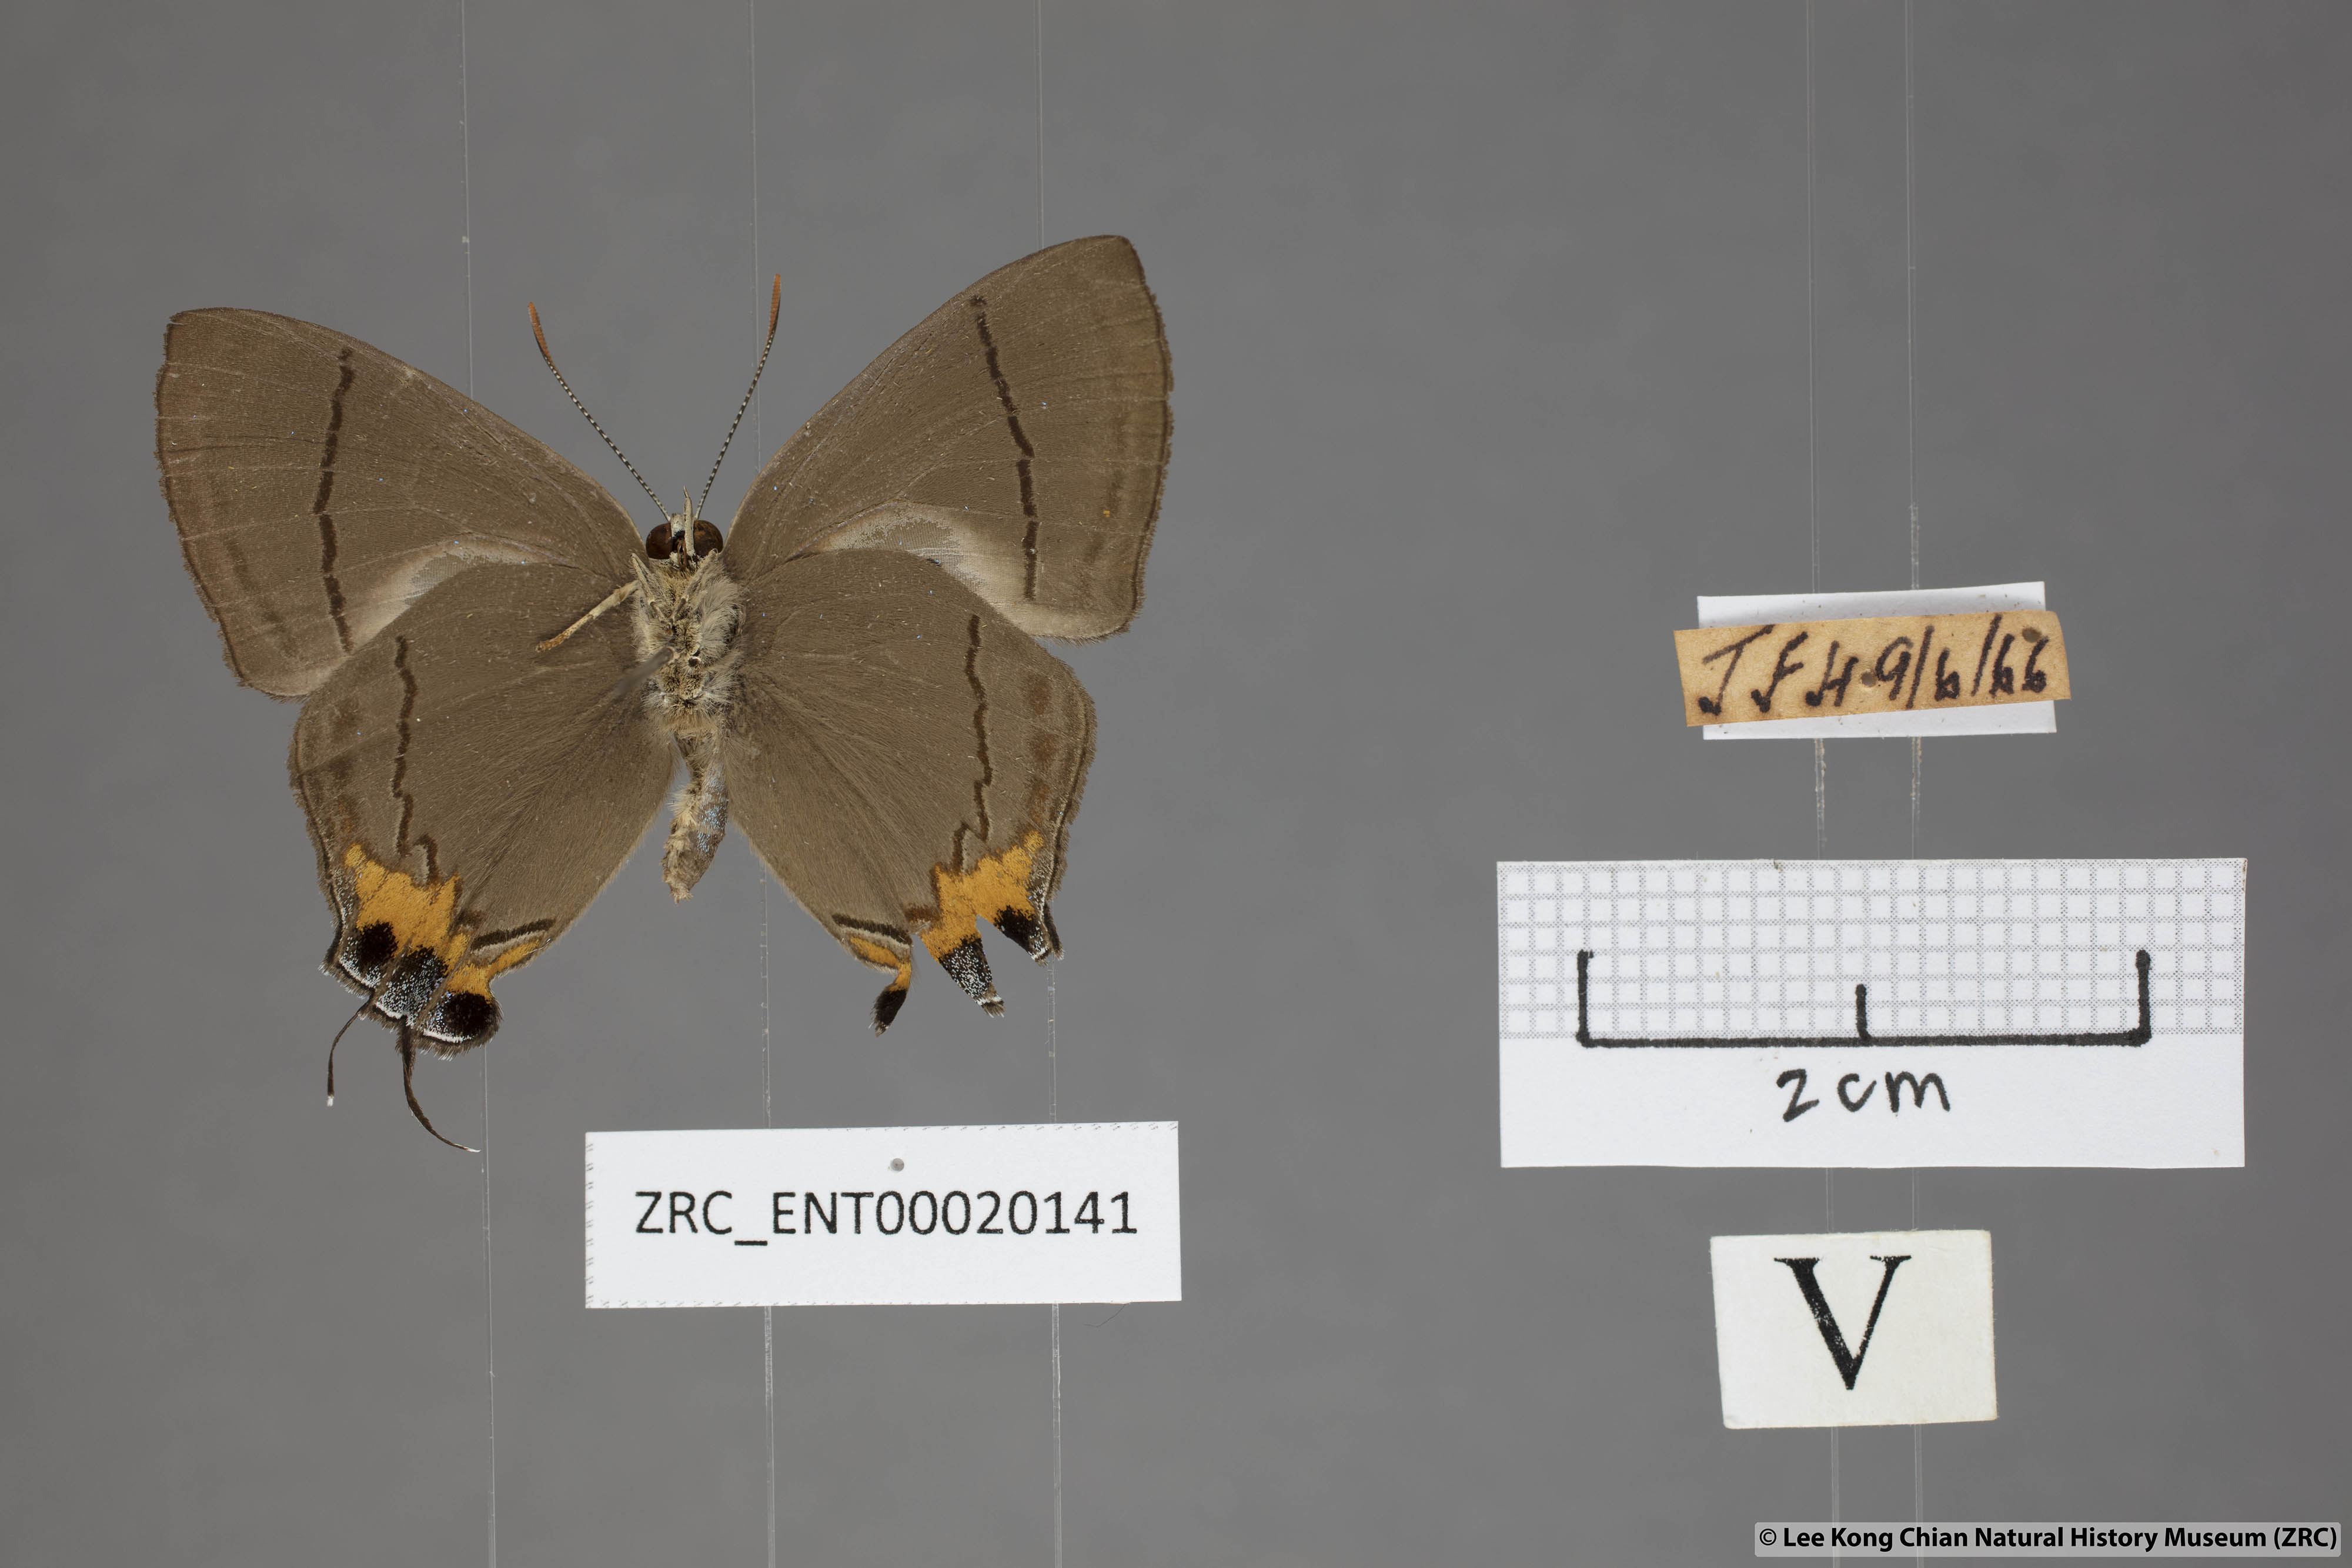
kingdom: Animalia
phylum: Arthropoda
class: Insecta
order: Lepidoptera
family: Lycaenidae
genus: Creon
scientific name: Creon cleobis
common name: Broad-tail royal
